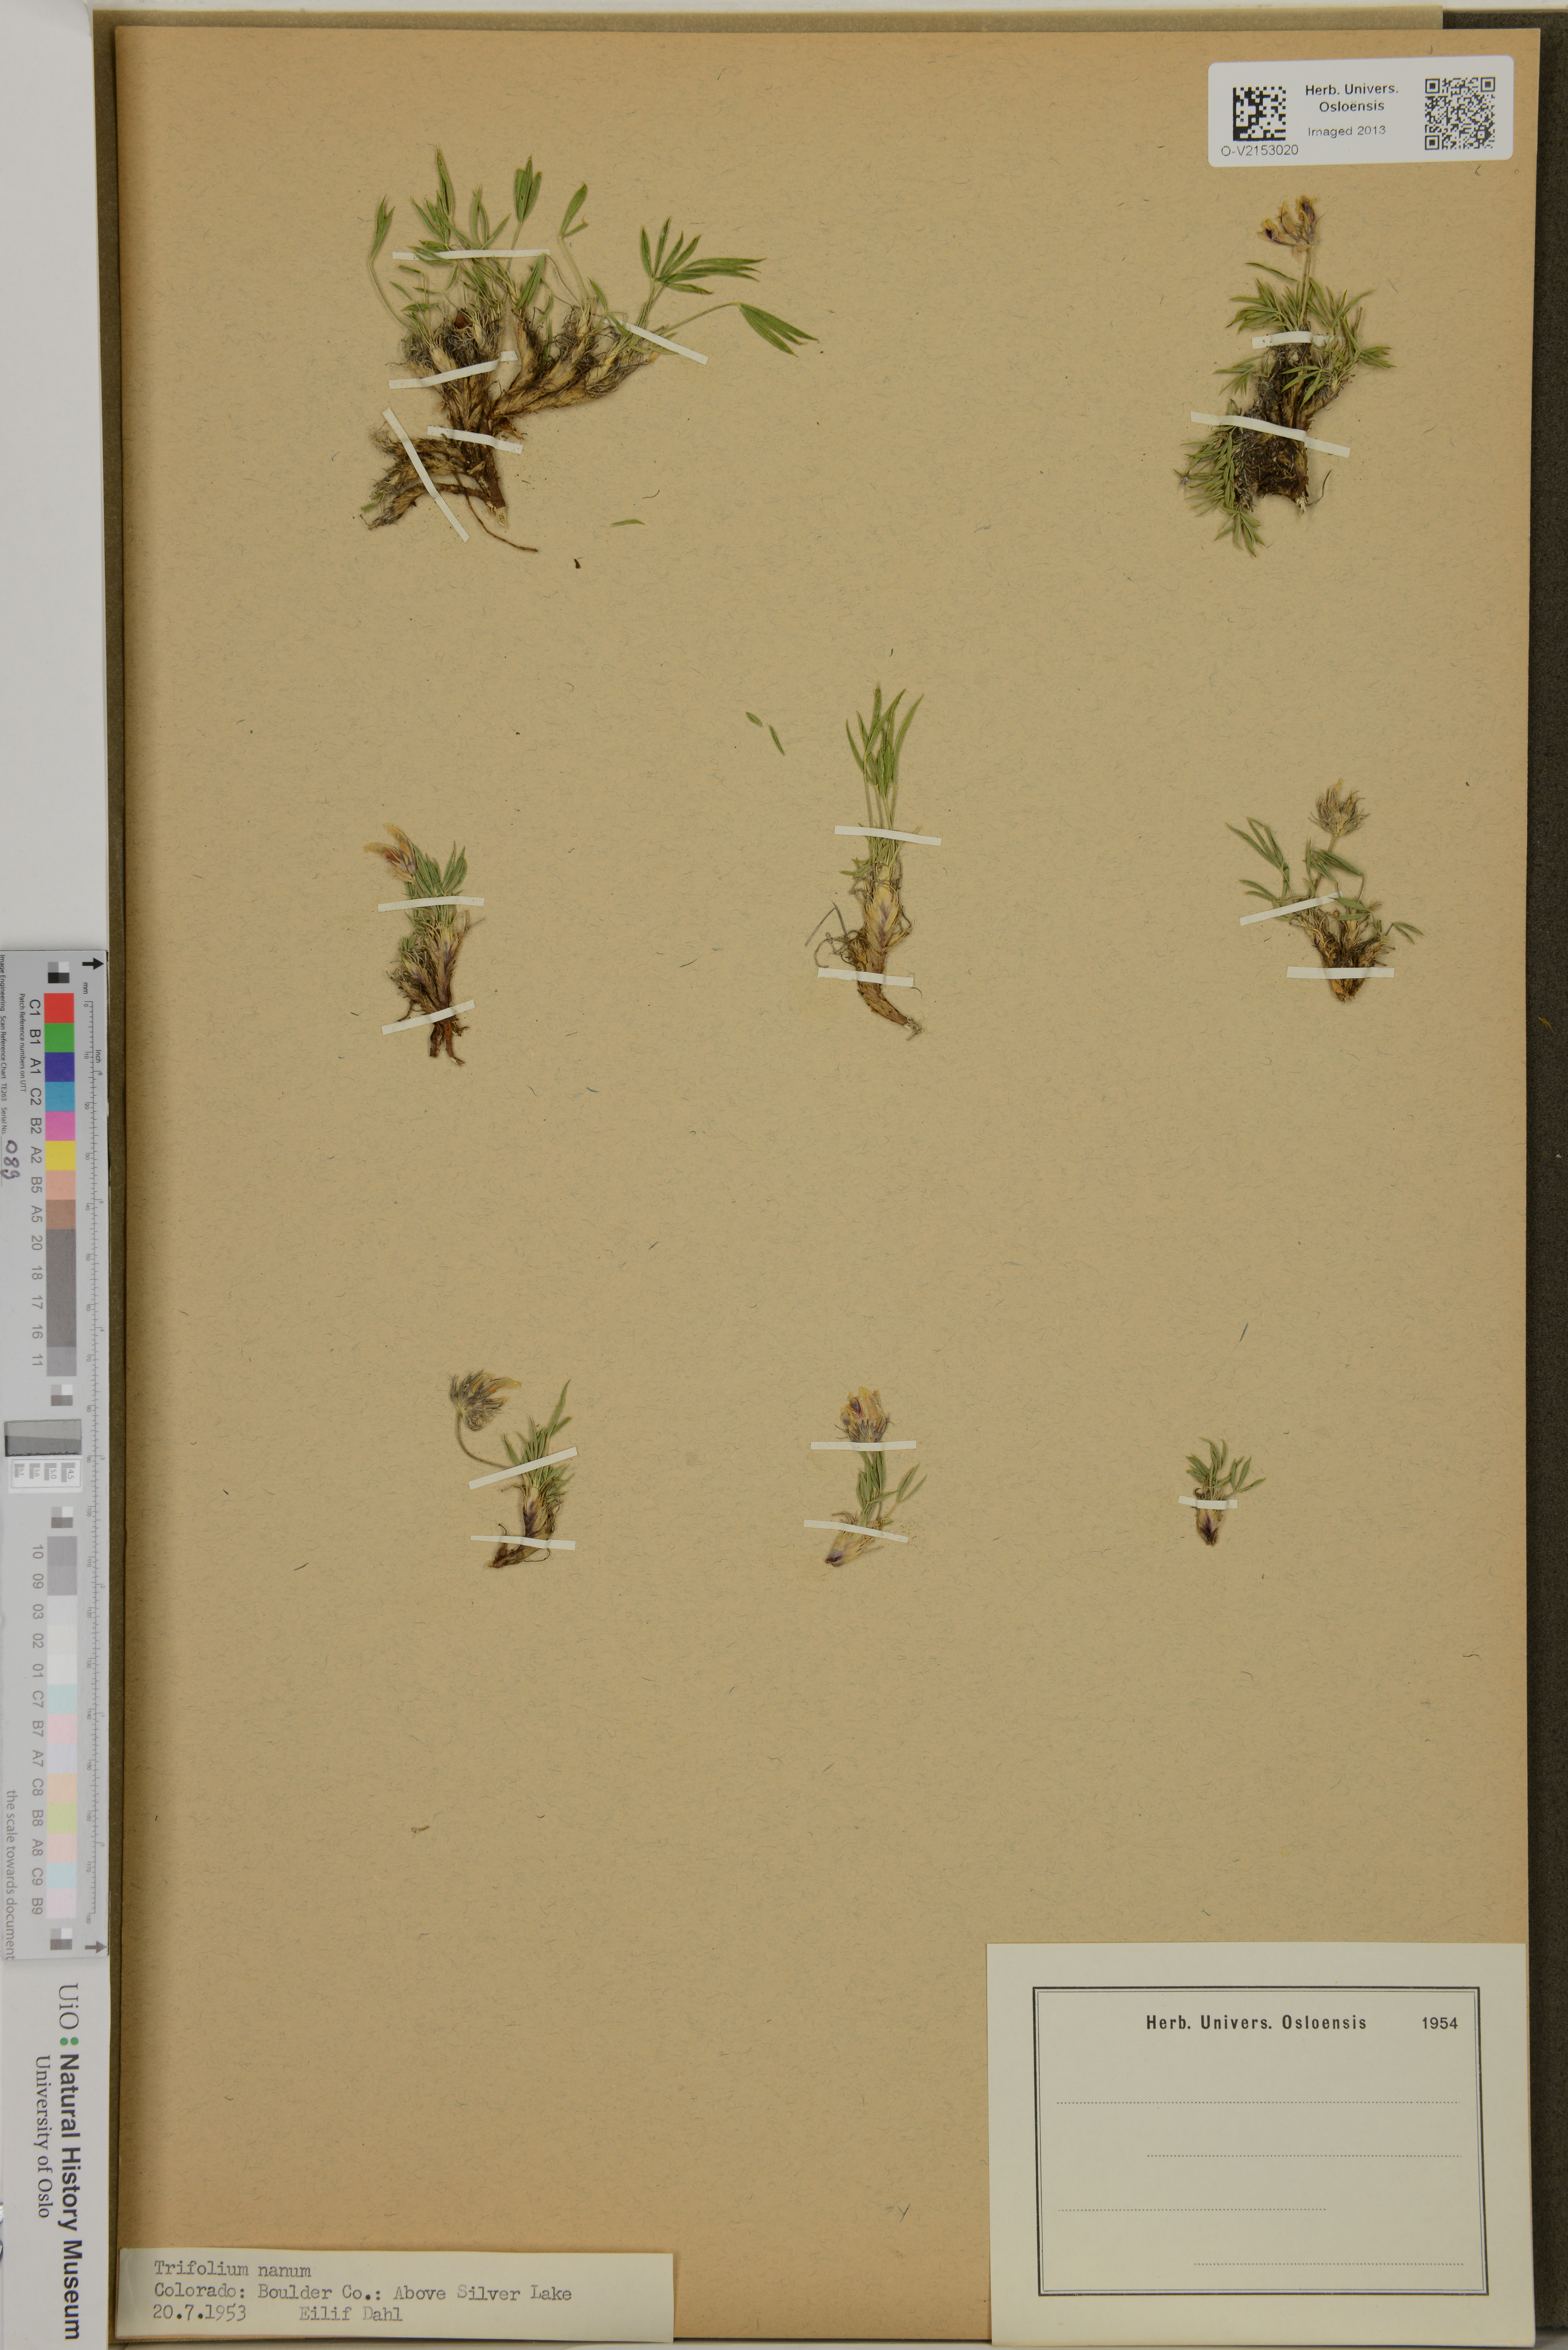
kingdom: Plantae
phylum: Tracheophyta
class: Magnoliopsida
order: Fabales
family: Fabaceae
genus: Trifolium
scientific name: Trifolium nanum
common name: Tundra clover
